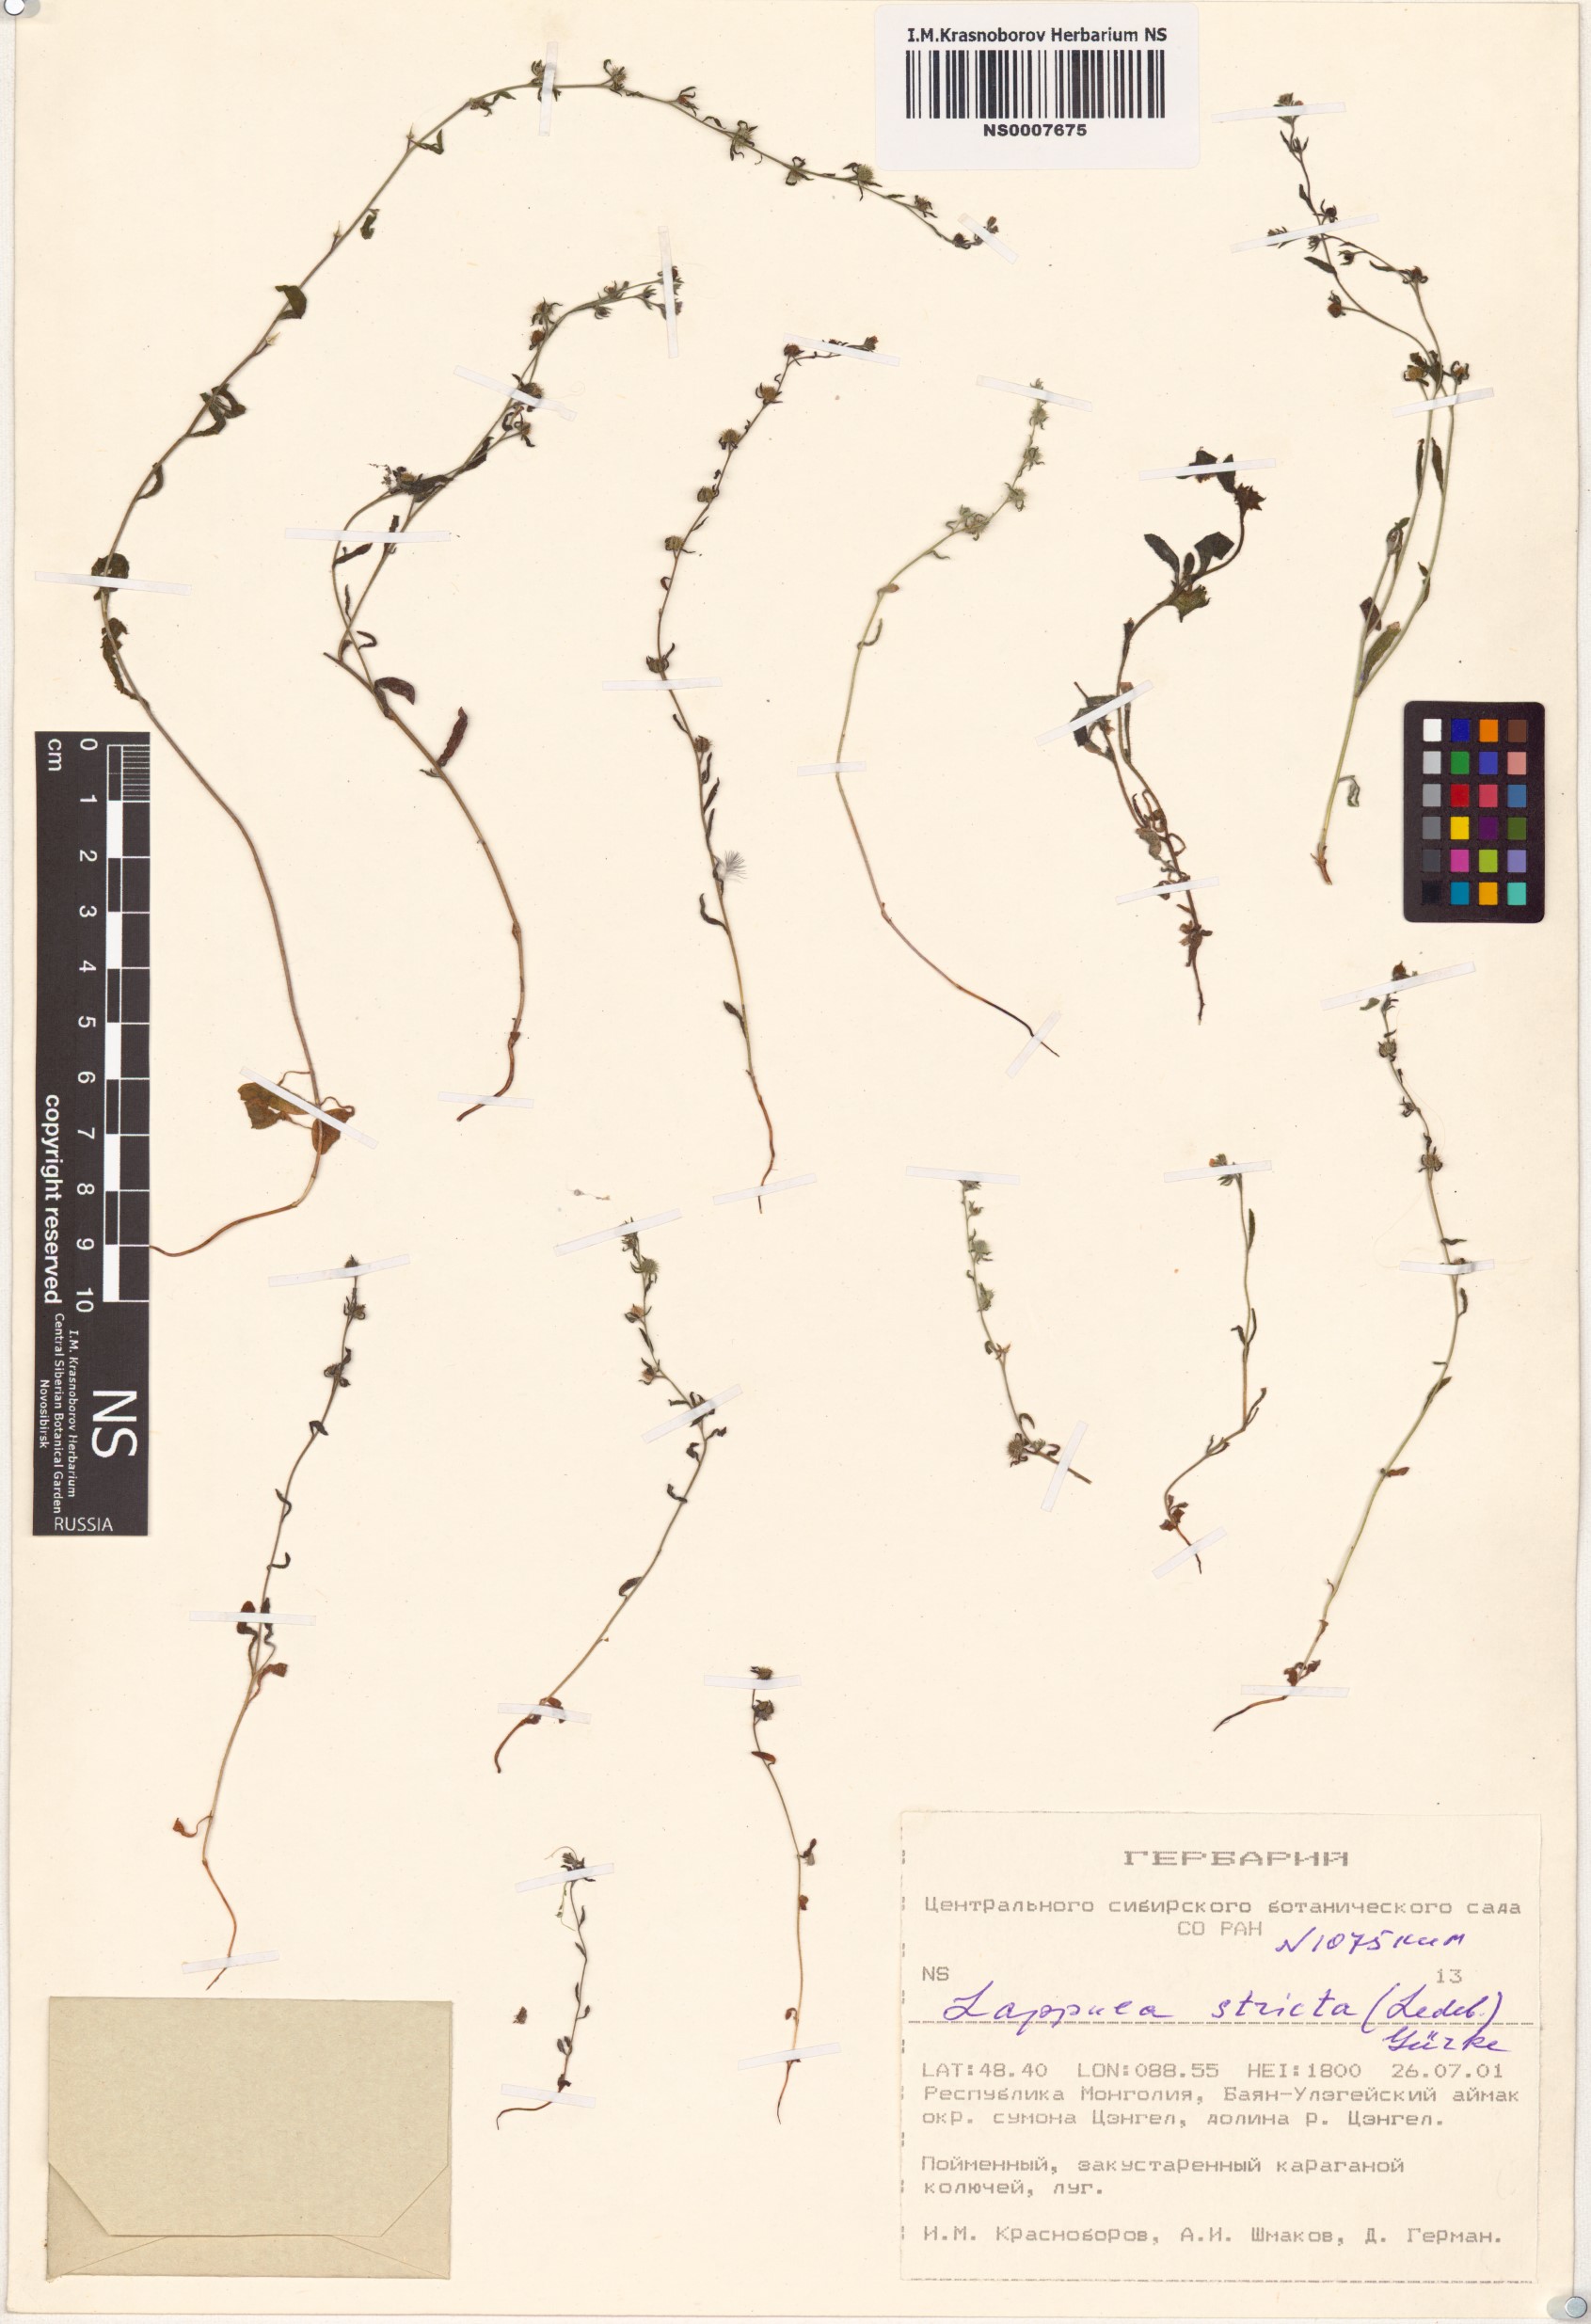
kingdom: Plantae
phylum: Tracheophyta
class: Magnoliopsida
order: Boraginales
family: Boraginaceae
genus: Lappula
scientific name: Lappula stricta
